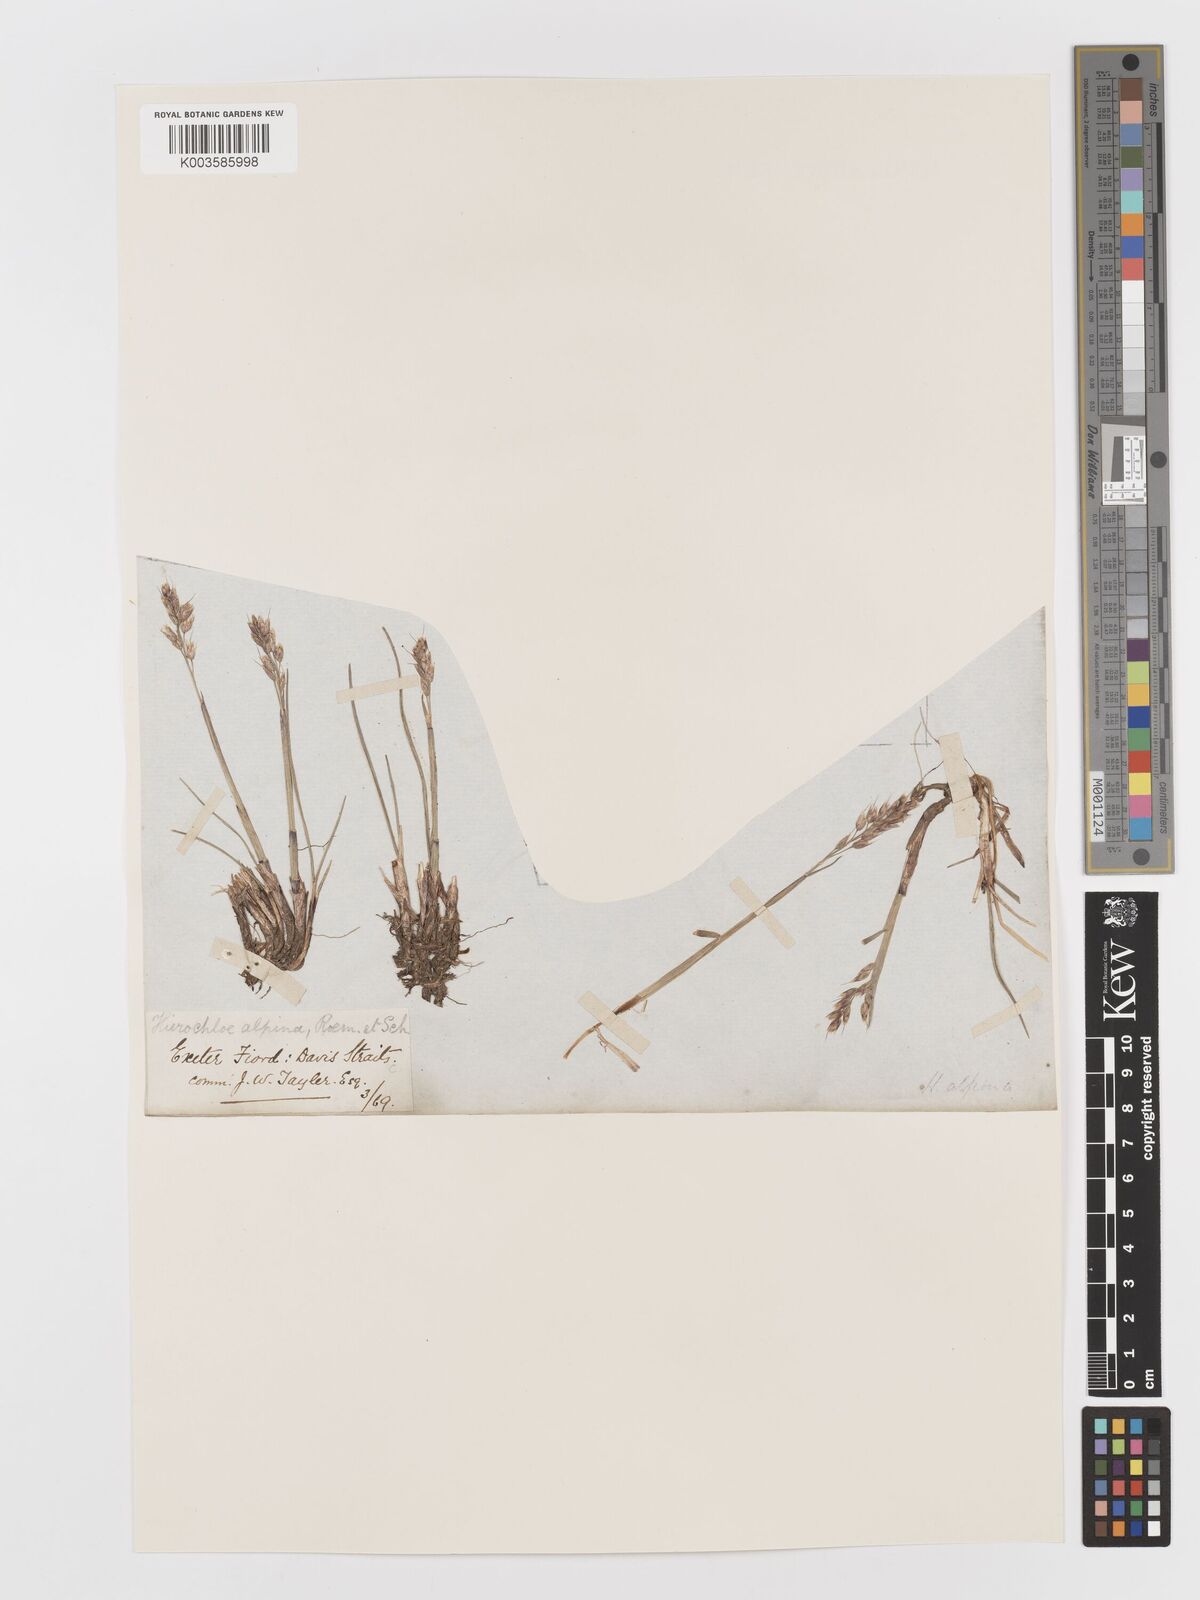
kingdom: Plantae
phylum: Tracheophyta
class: Liliopsida
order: Poales
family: Poaceae
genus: Anthoxanthum
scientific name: Anthoxanthum monticola
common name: Alpine sweetgrass
